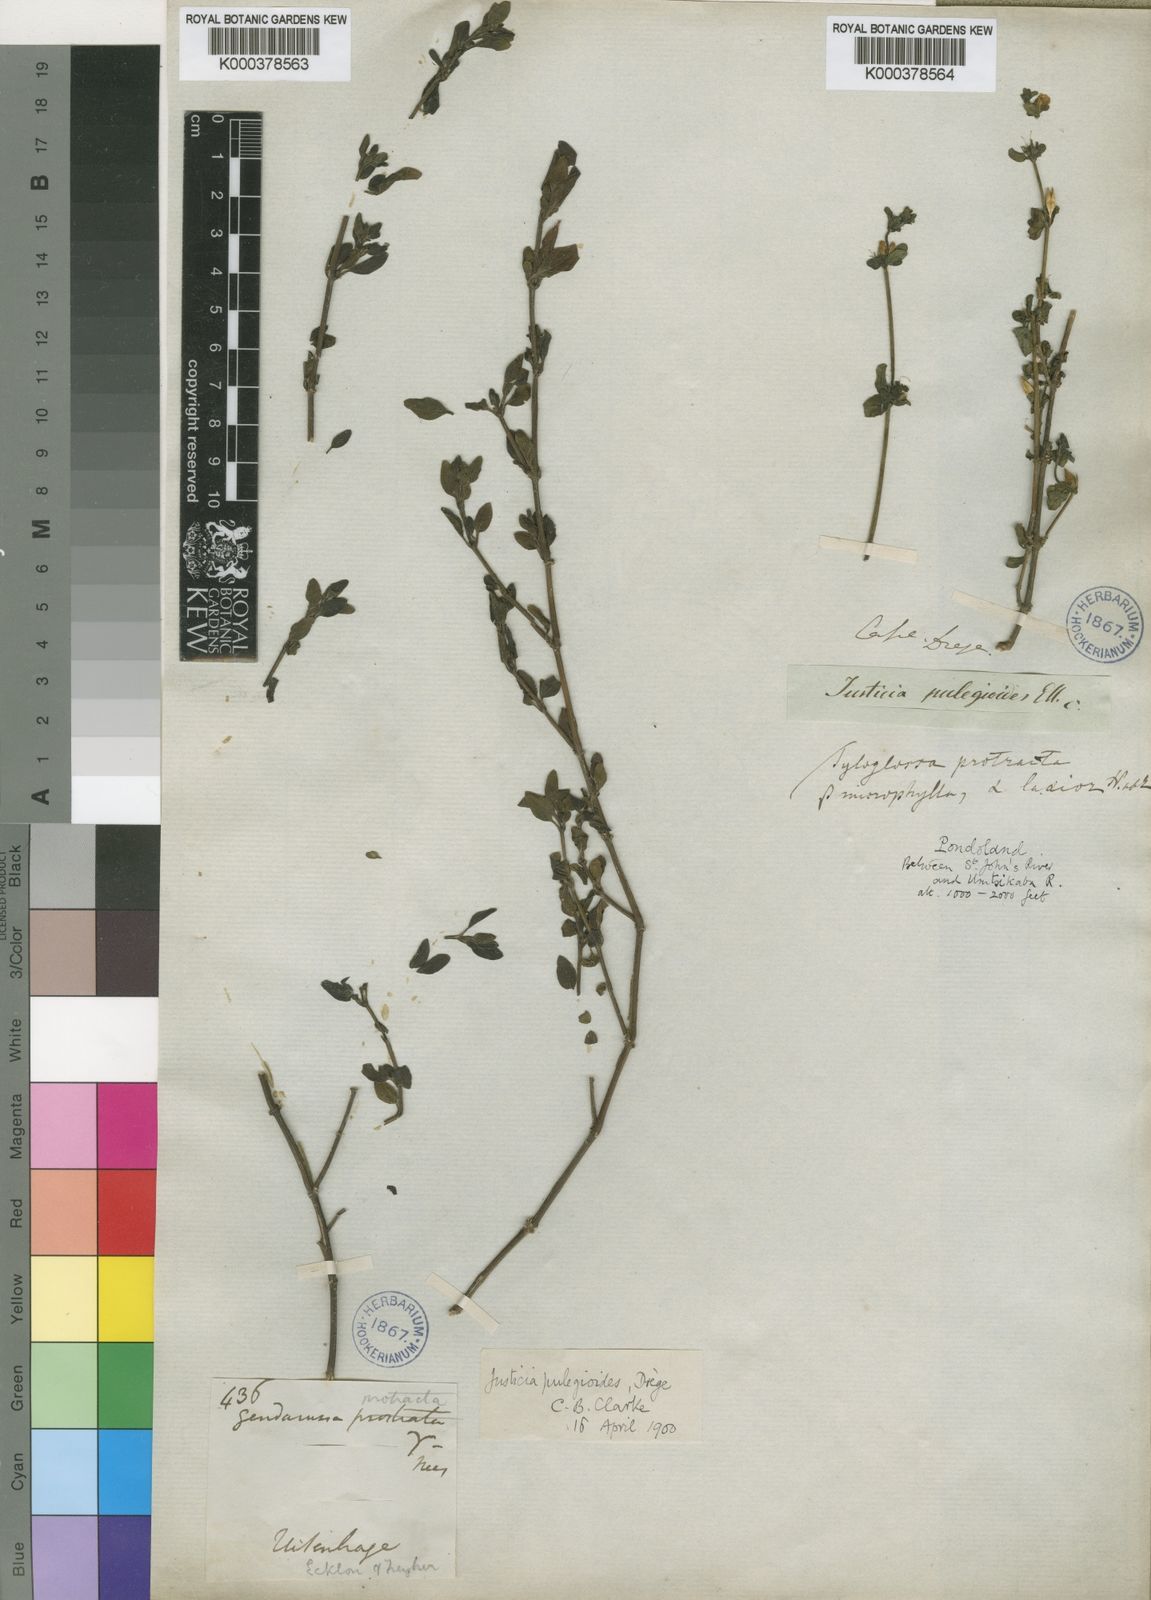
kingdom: Plantae
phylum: Tracheophyta
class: Magnoliopsida
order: Lamiales
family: Acanthaceae
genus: Justicia
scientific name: Justicia protracta
